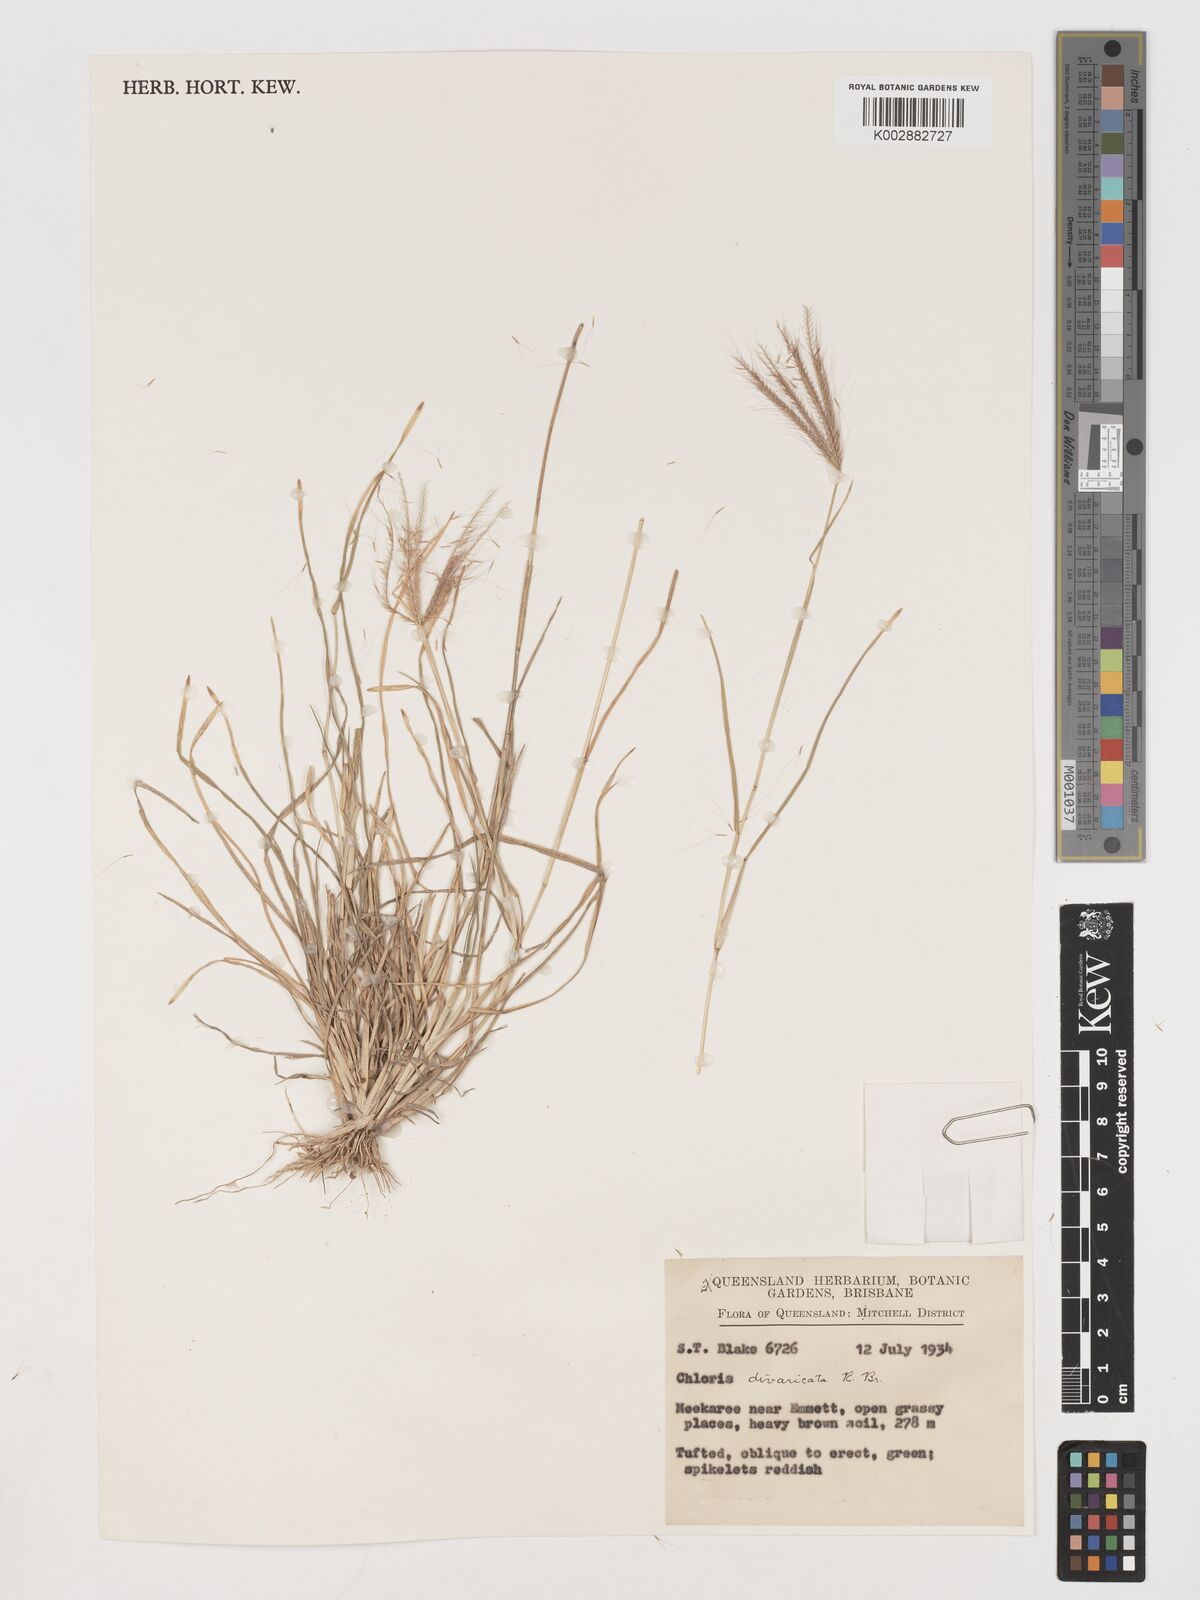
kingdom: Plantae
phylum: Tracheophyta
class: Liliopsida
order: Poales
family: Poaceae
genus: Chloris
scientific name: Chloris divaricata
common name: Spreading windmill grass
